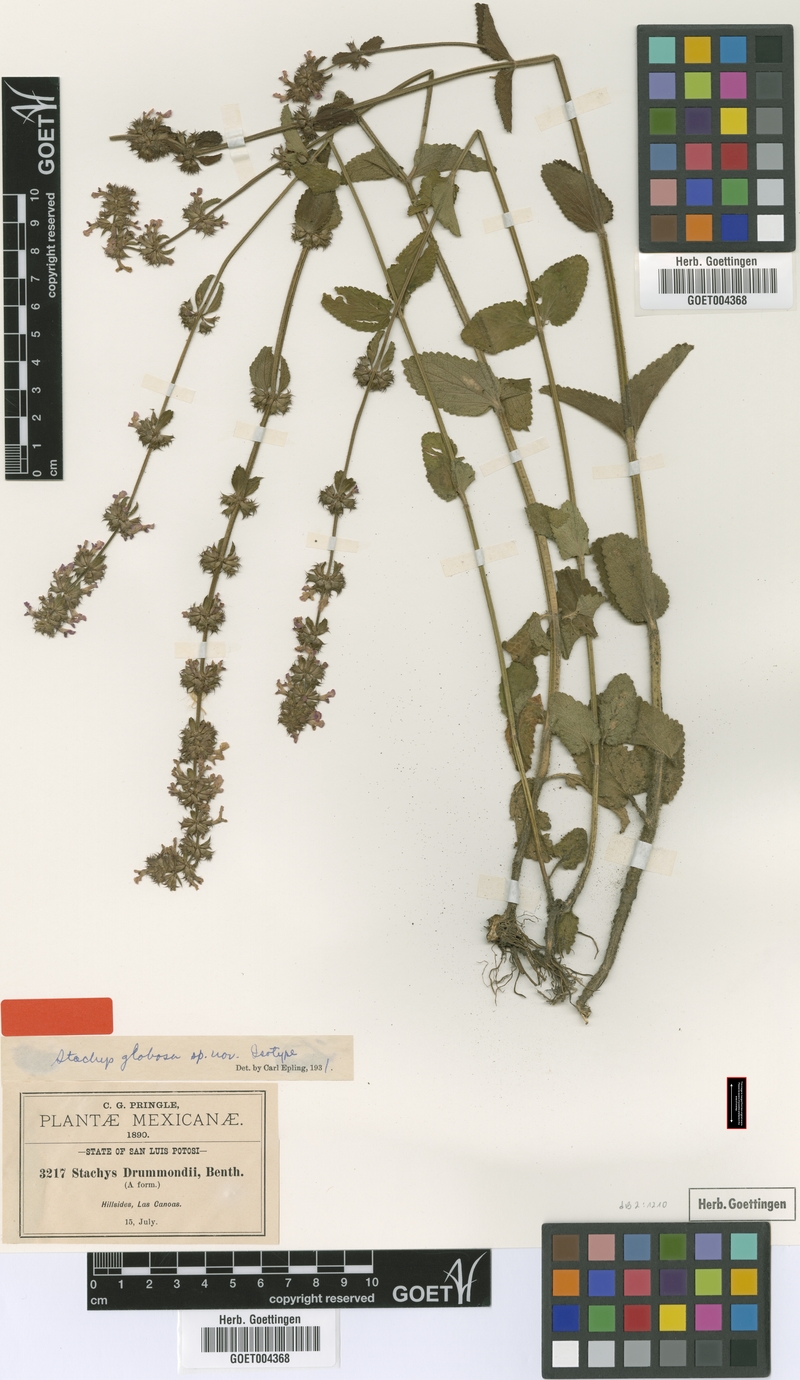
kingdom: Plantae
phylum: Tracheophyta
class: Magnoliopsida
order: Lamiales
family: Lamiaceae
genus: Stachys
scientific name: Stachys globosa
